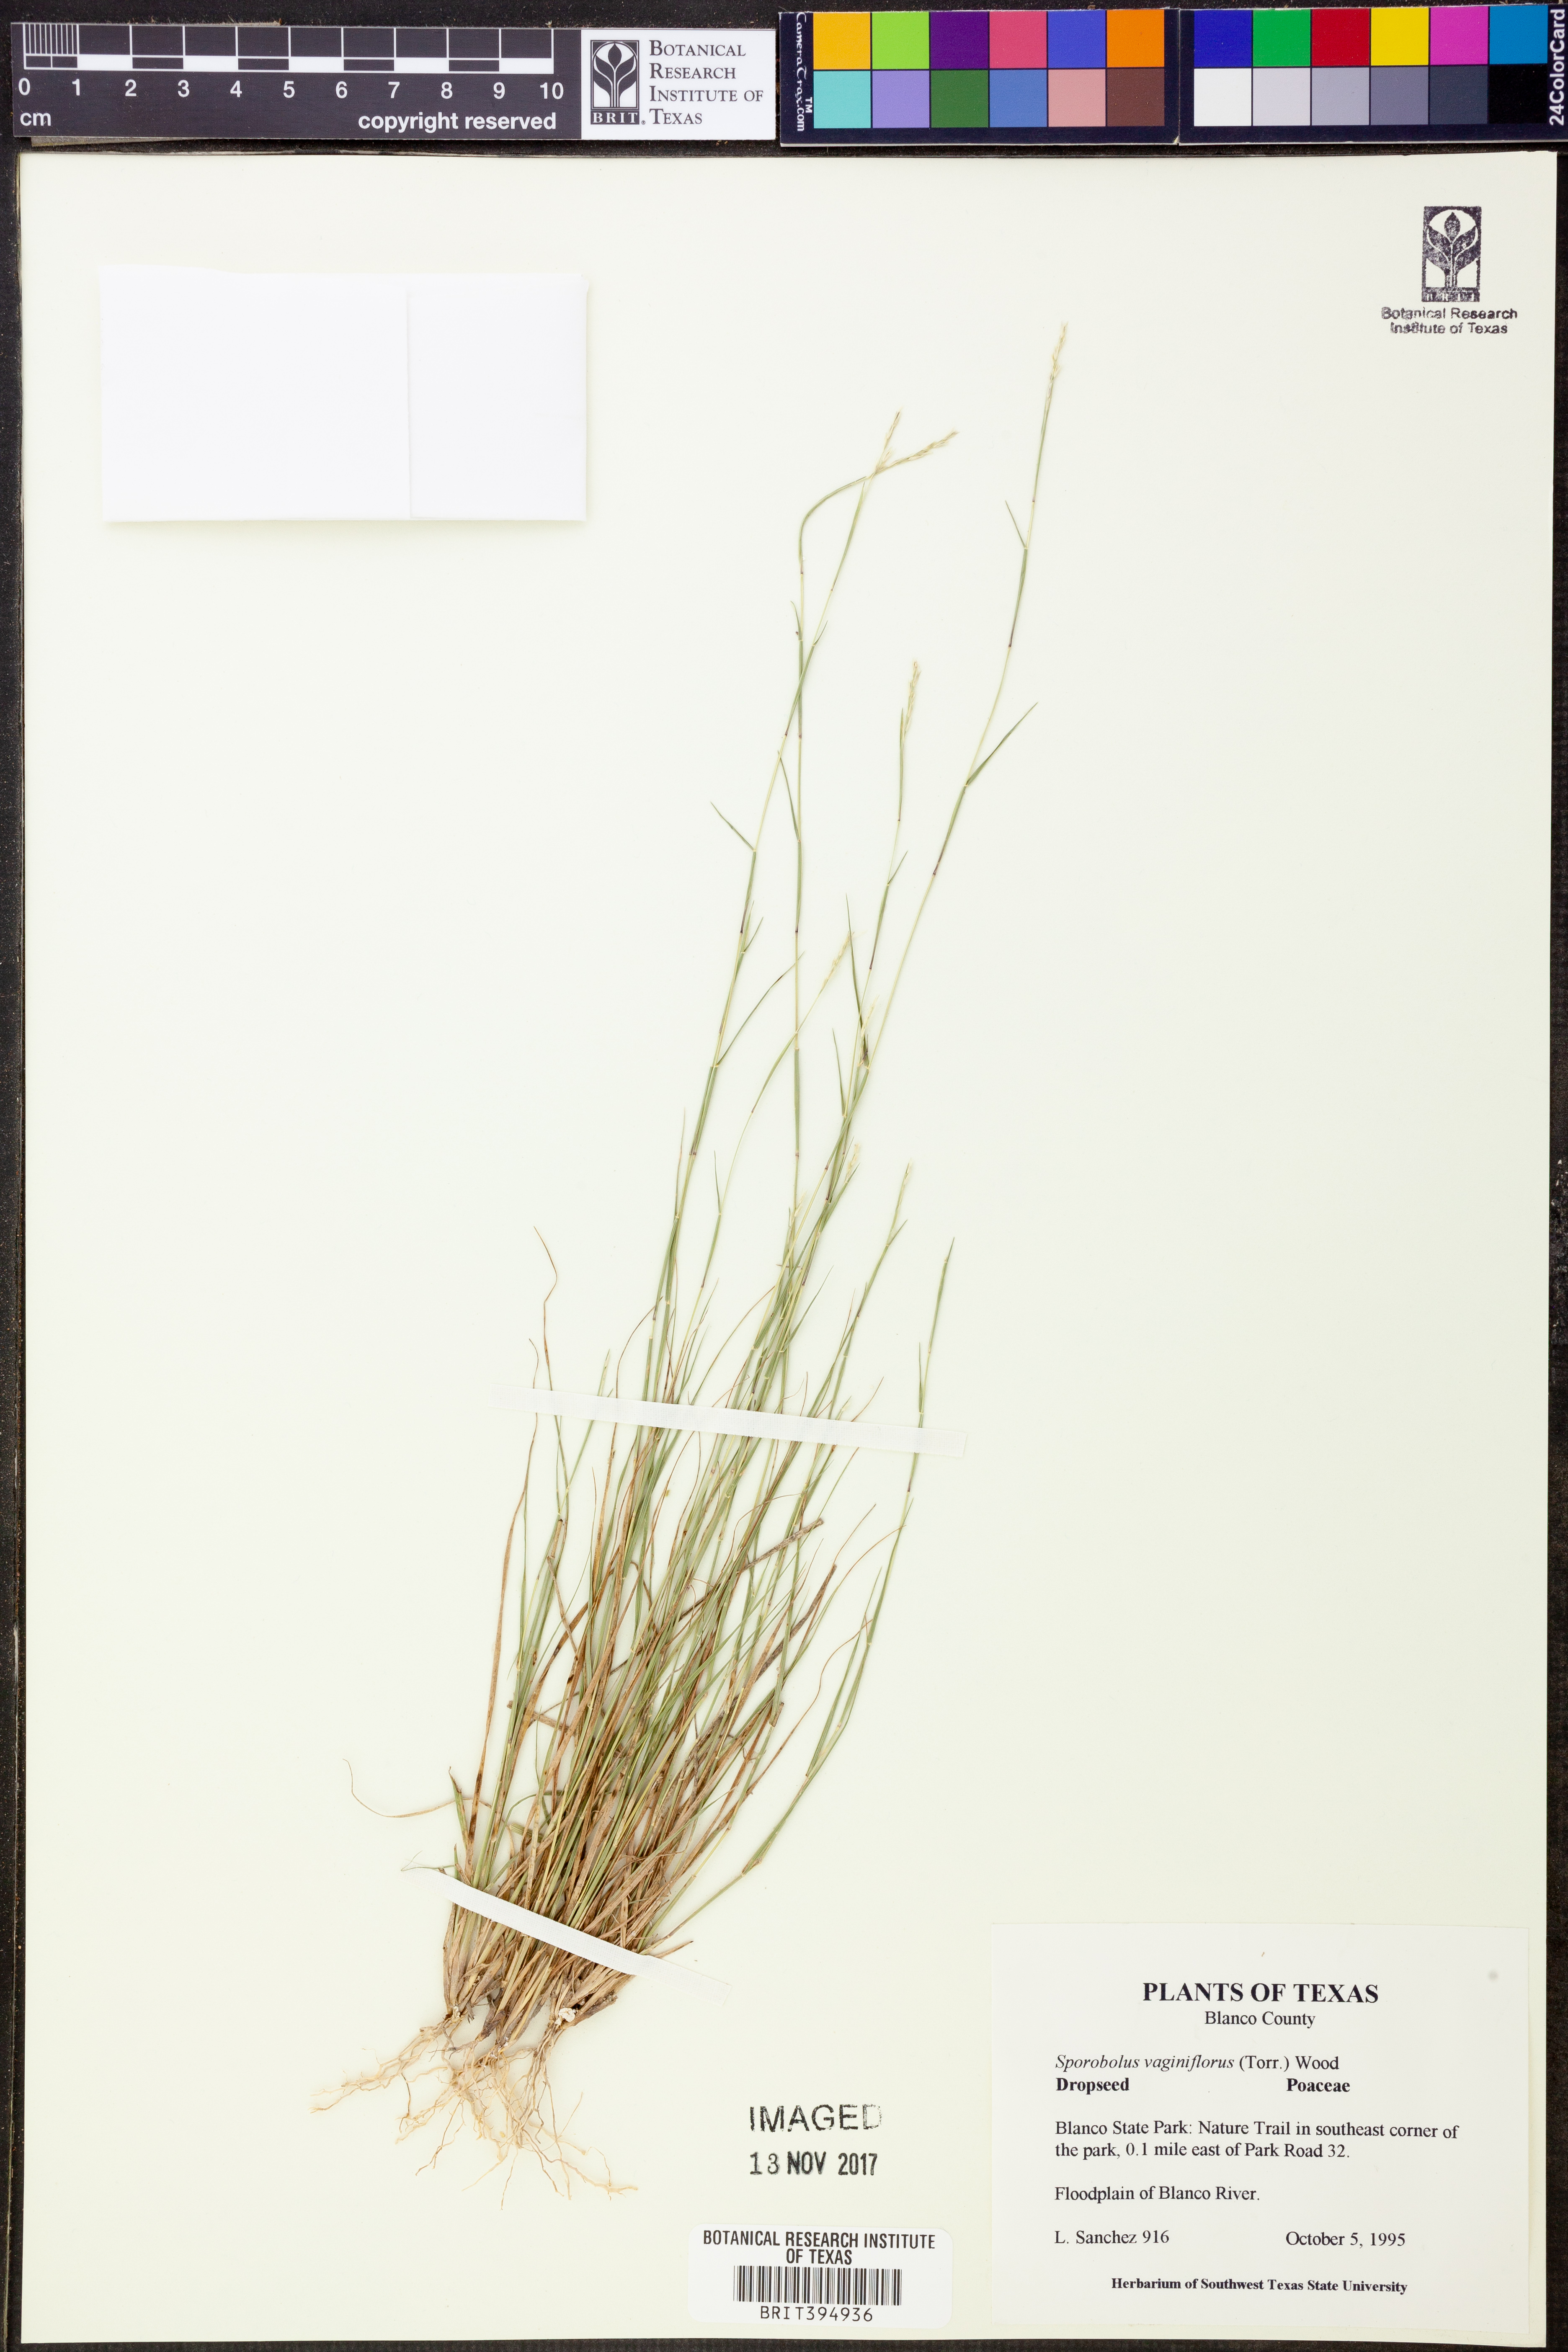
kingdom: Plantae
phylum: Tracheophyta
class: Liliopsida
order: Poales
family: Poaceae
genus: Sporobolus
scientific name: Sporobolus vaginiflorus
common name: Poverty dropseed
